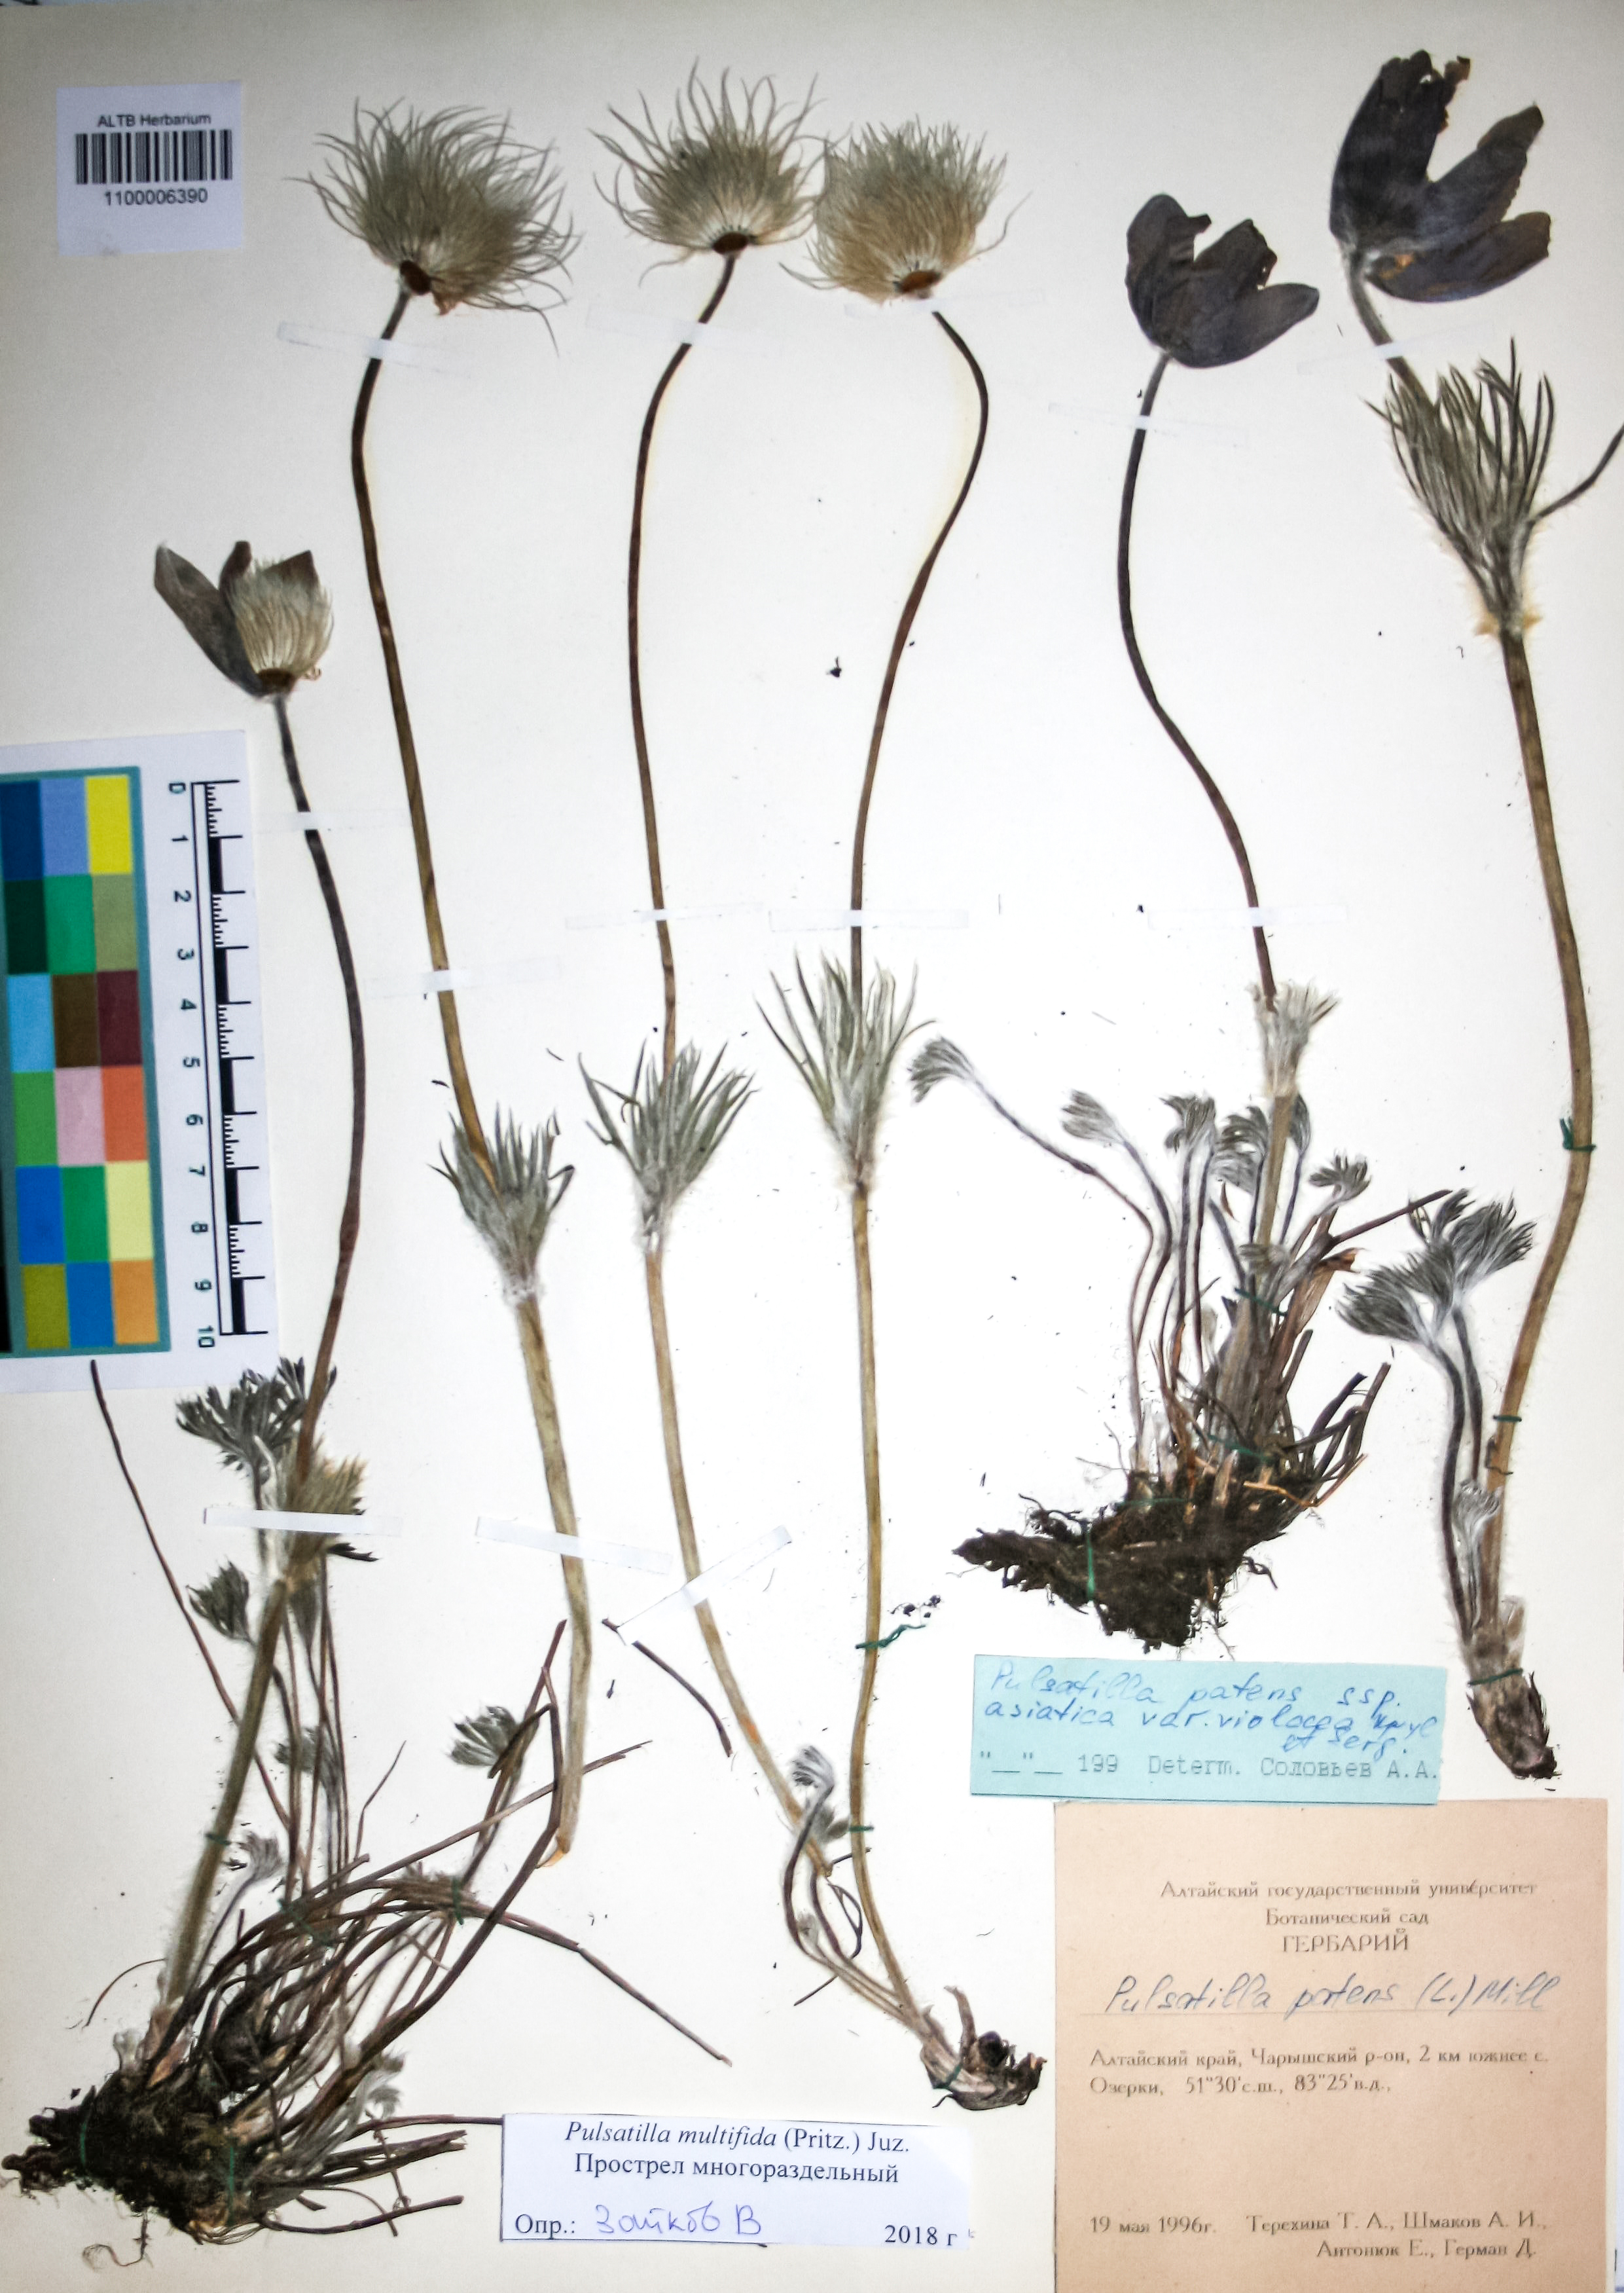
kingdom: Plantae
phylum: Tracheophyta
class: Magnoliopsida
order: Ranunculales
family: Ranunculaceae
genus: Pulsatilla
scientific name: Pulsatilla patens
